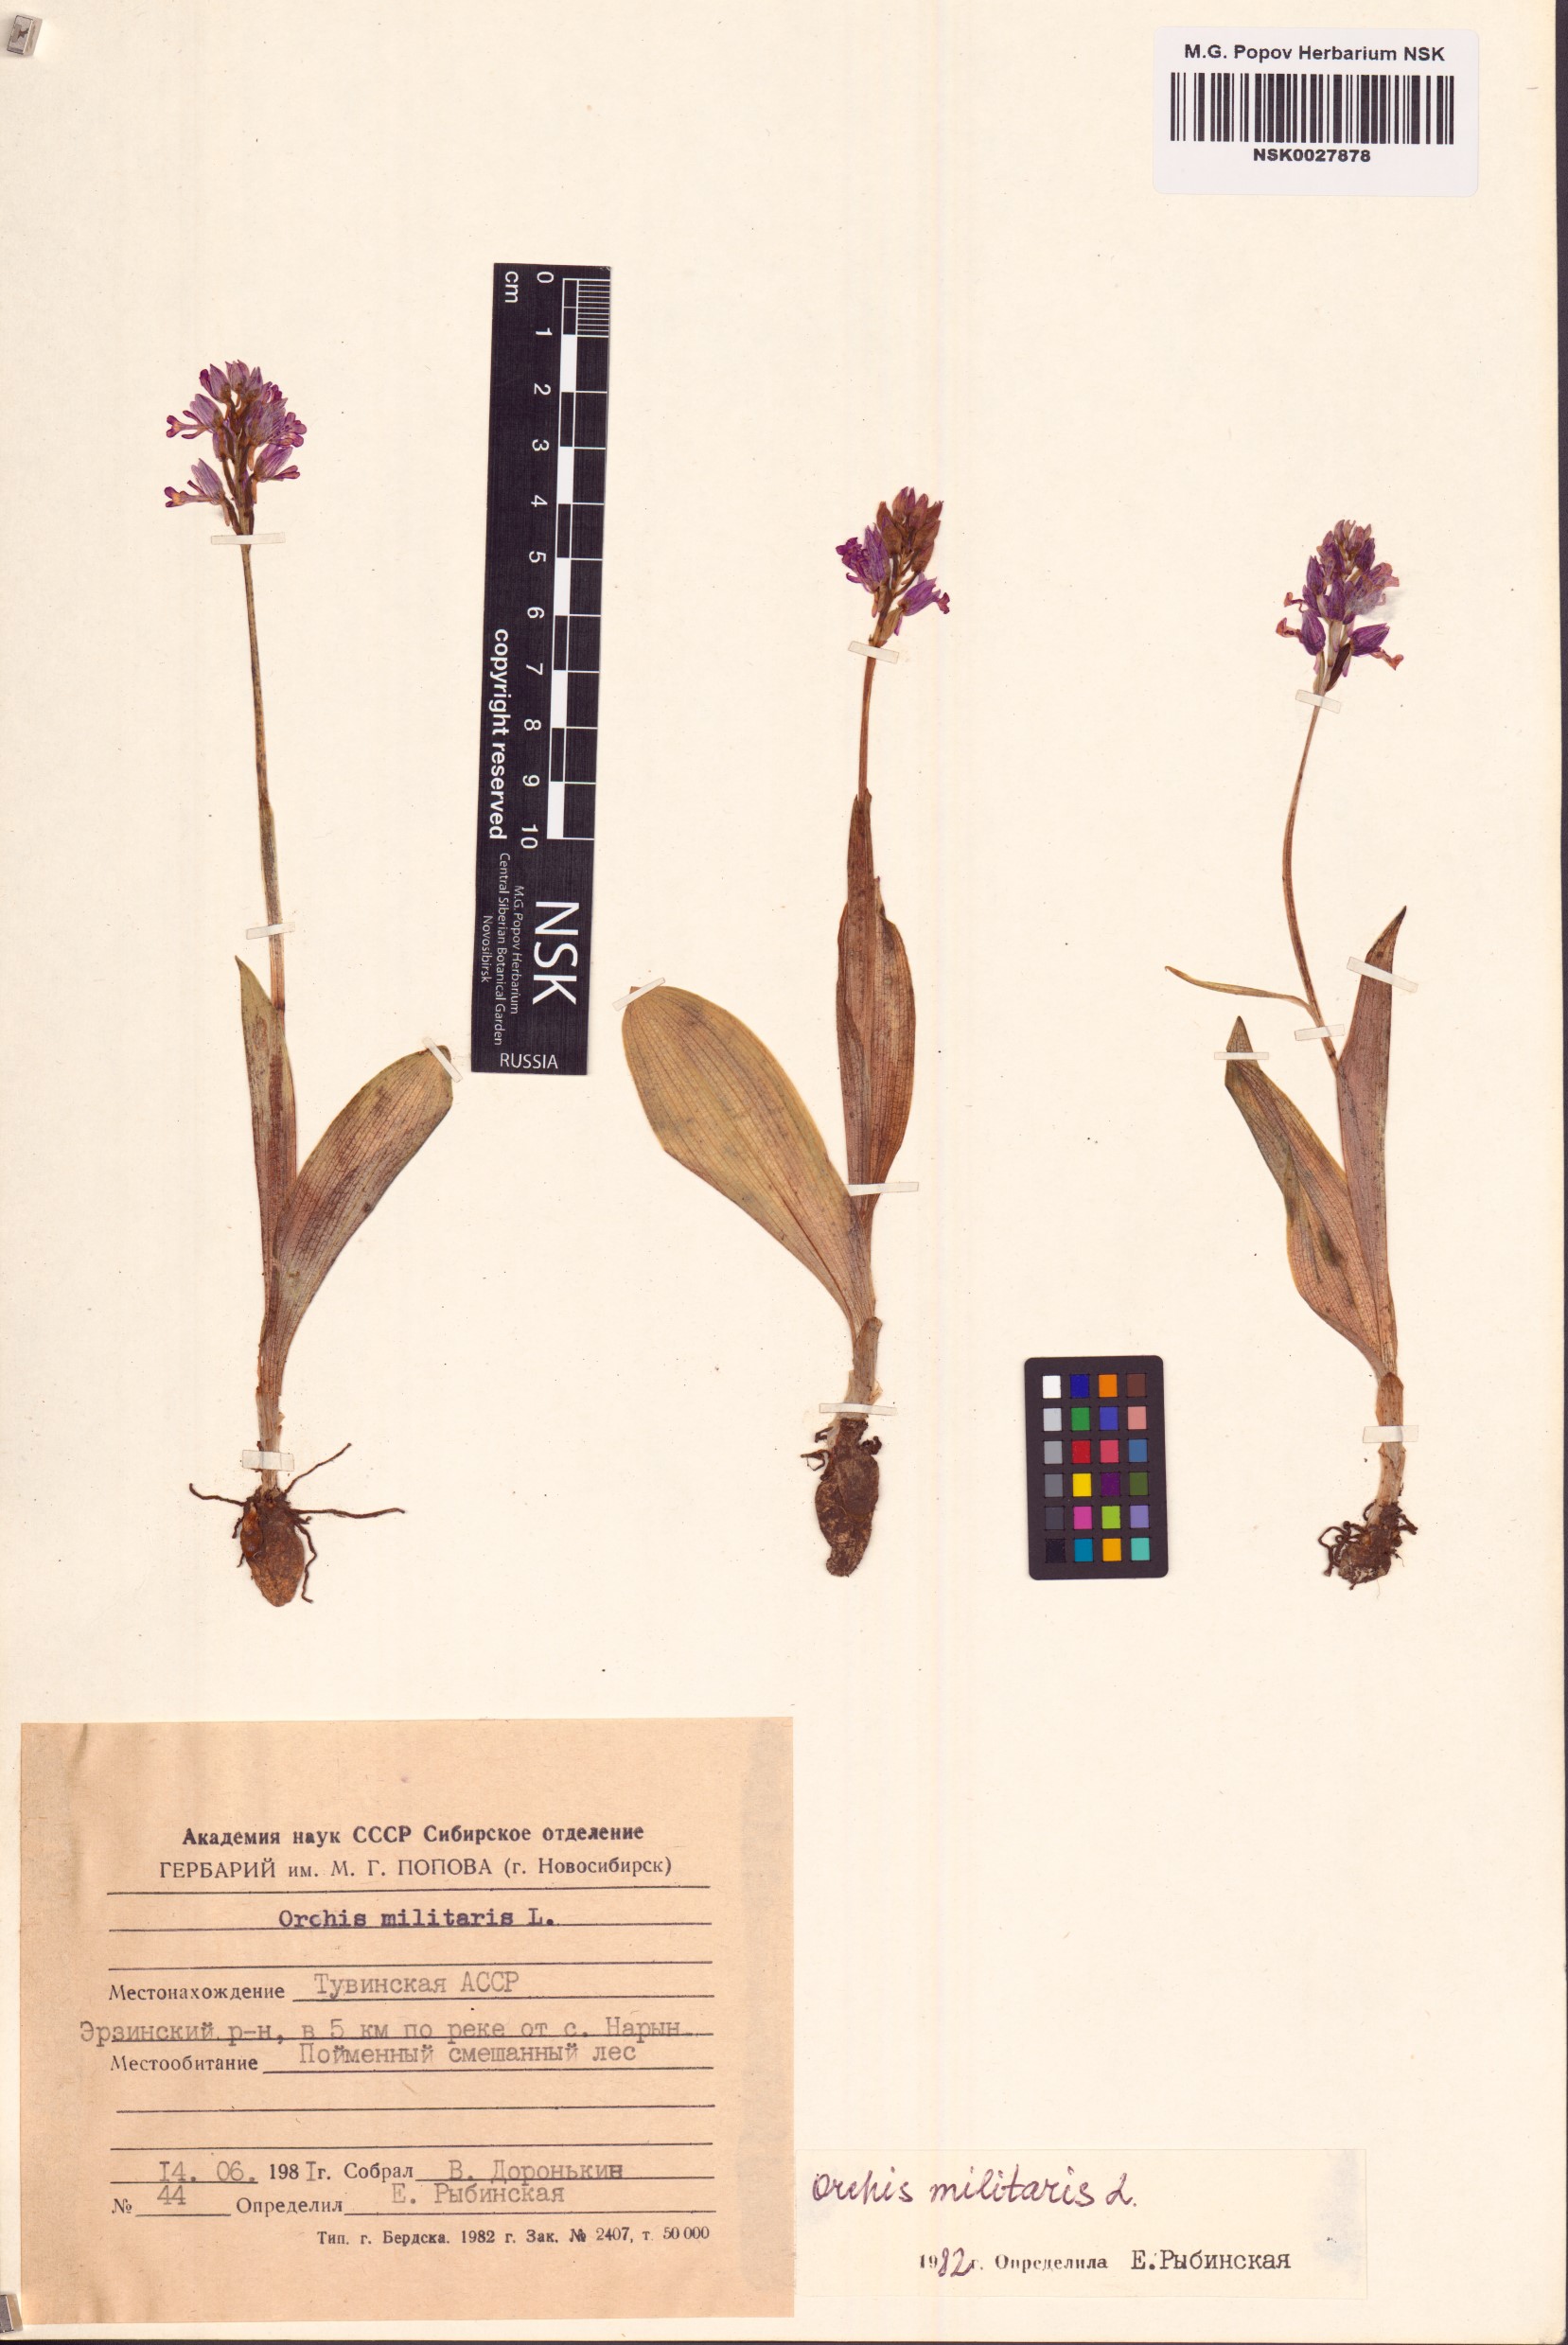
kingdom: Plantae
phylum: Tracheophyta
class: Liliopsida
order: Asparagales
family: Orchidaceae
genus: Orchis
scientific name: Orchis militaris
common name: Military orchid
